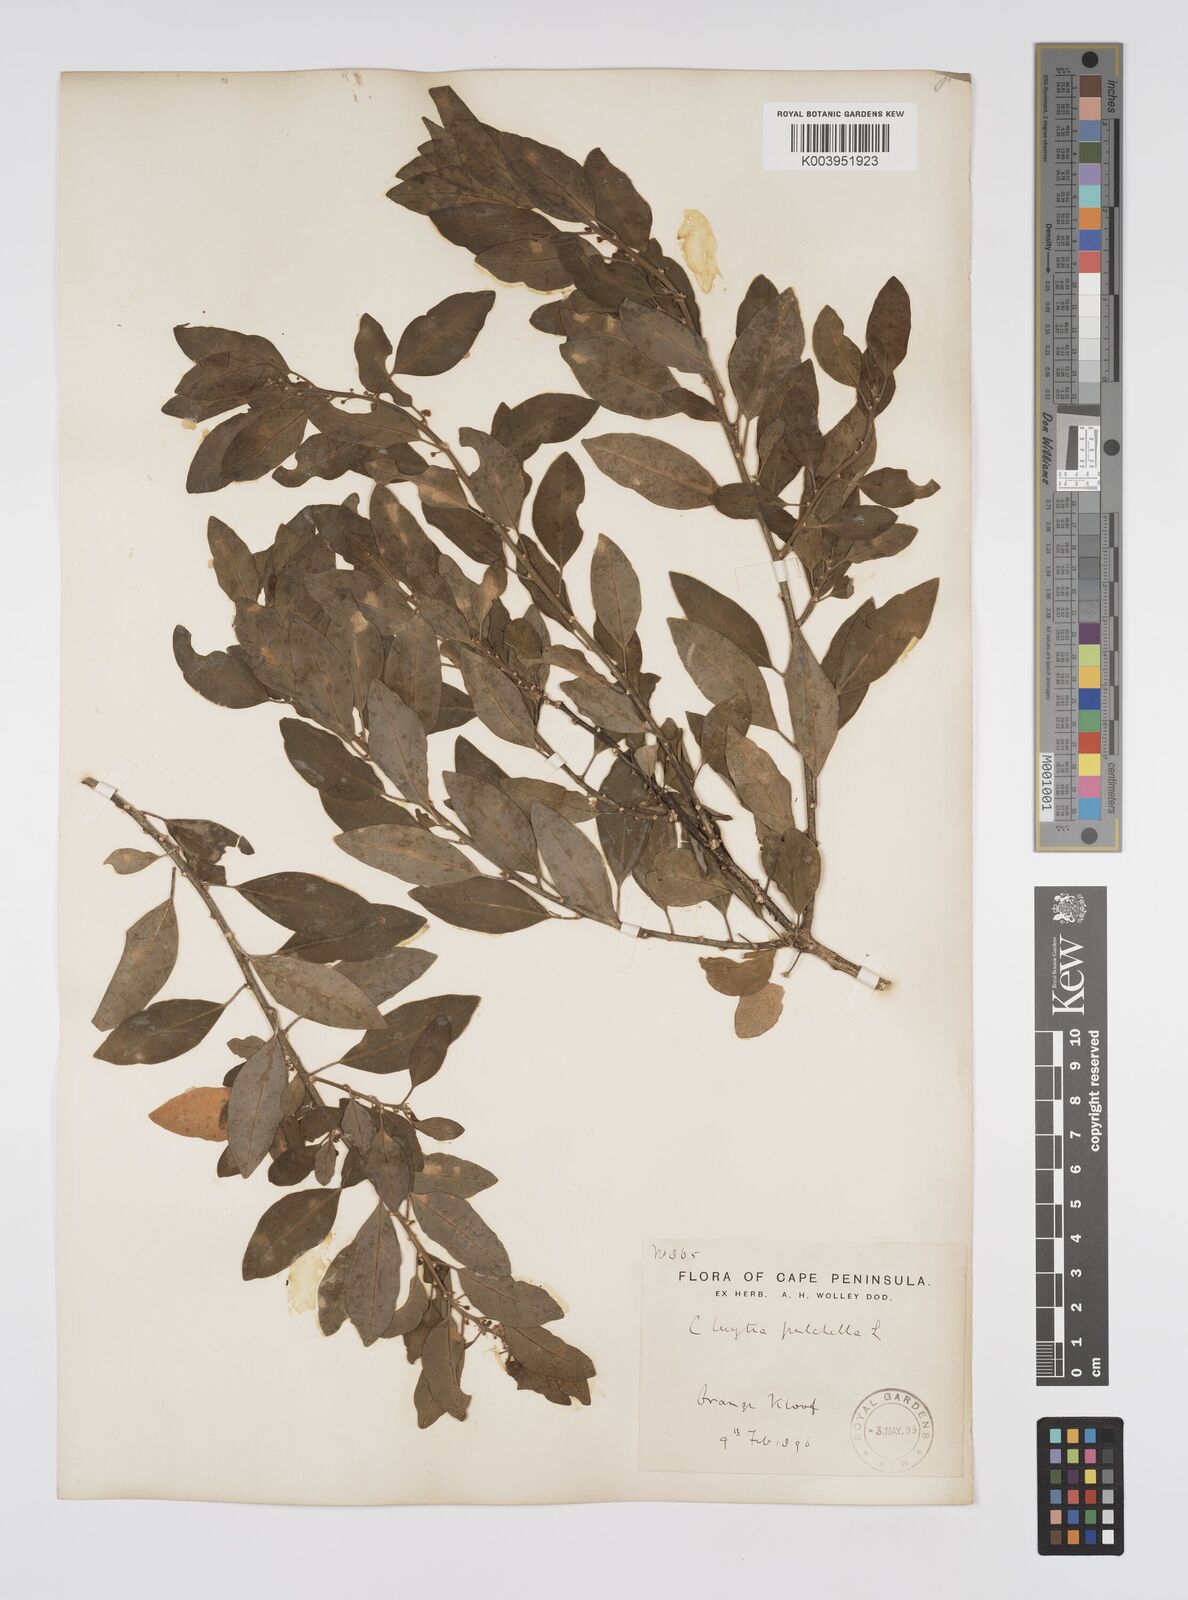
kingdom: Plantae
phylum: Tracheophyta
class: Magnoliopsida
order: Malpighiales
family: Peraceae
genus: Clutia
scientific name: Clutia pulchella
